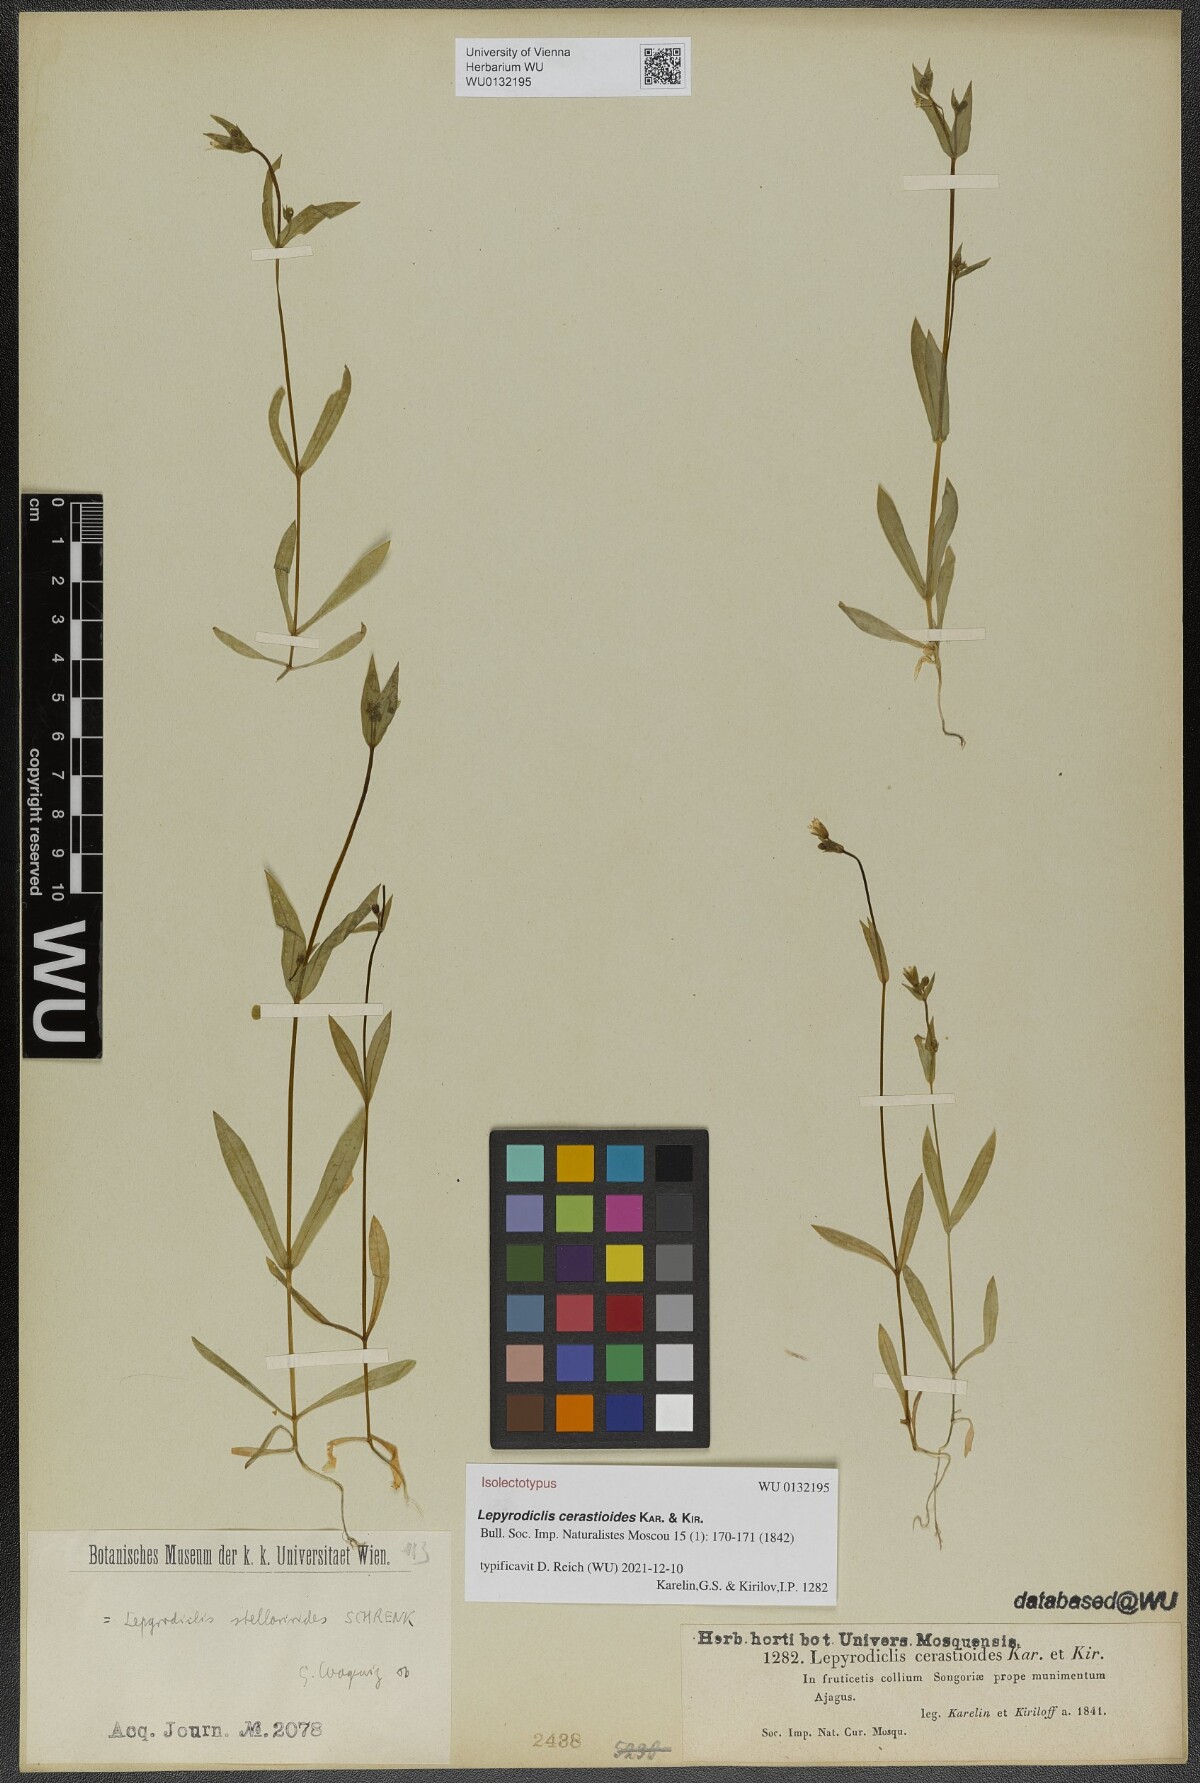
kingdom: Plantae
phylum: Tracheophyta
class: Magnoliopsida
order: Caryophyllales
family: Caryophyllaceae
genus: Lepyrodiclis
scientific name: Lepyrodiclis stellarioides
